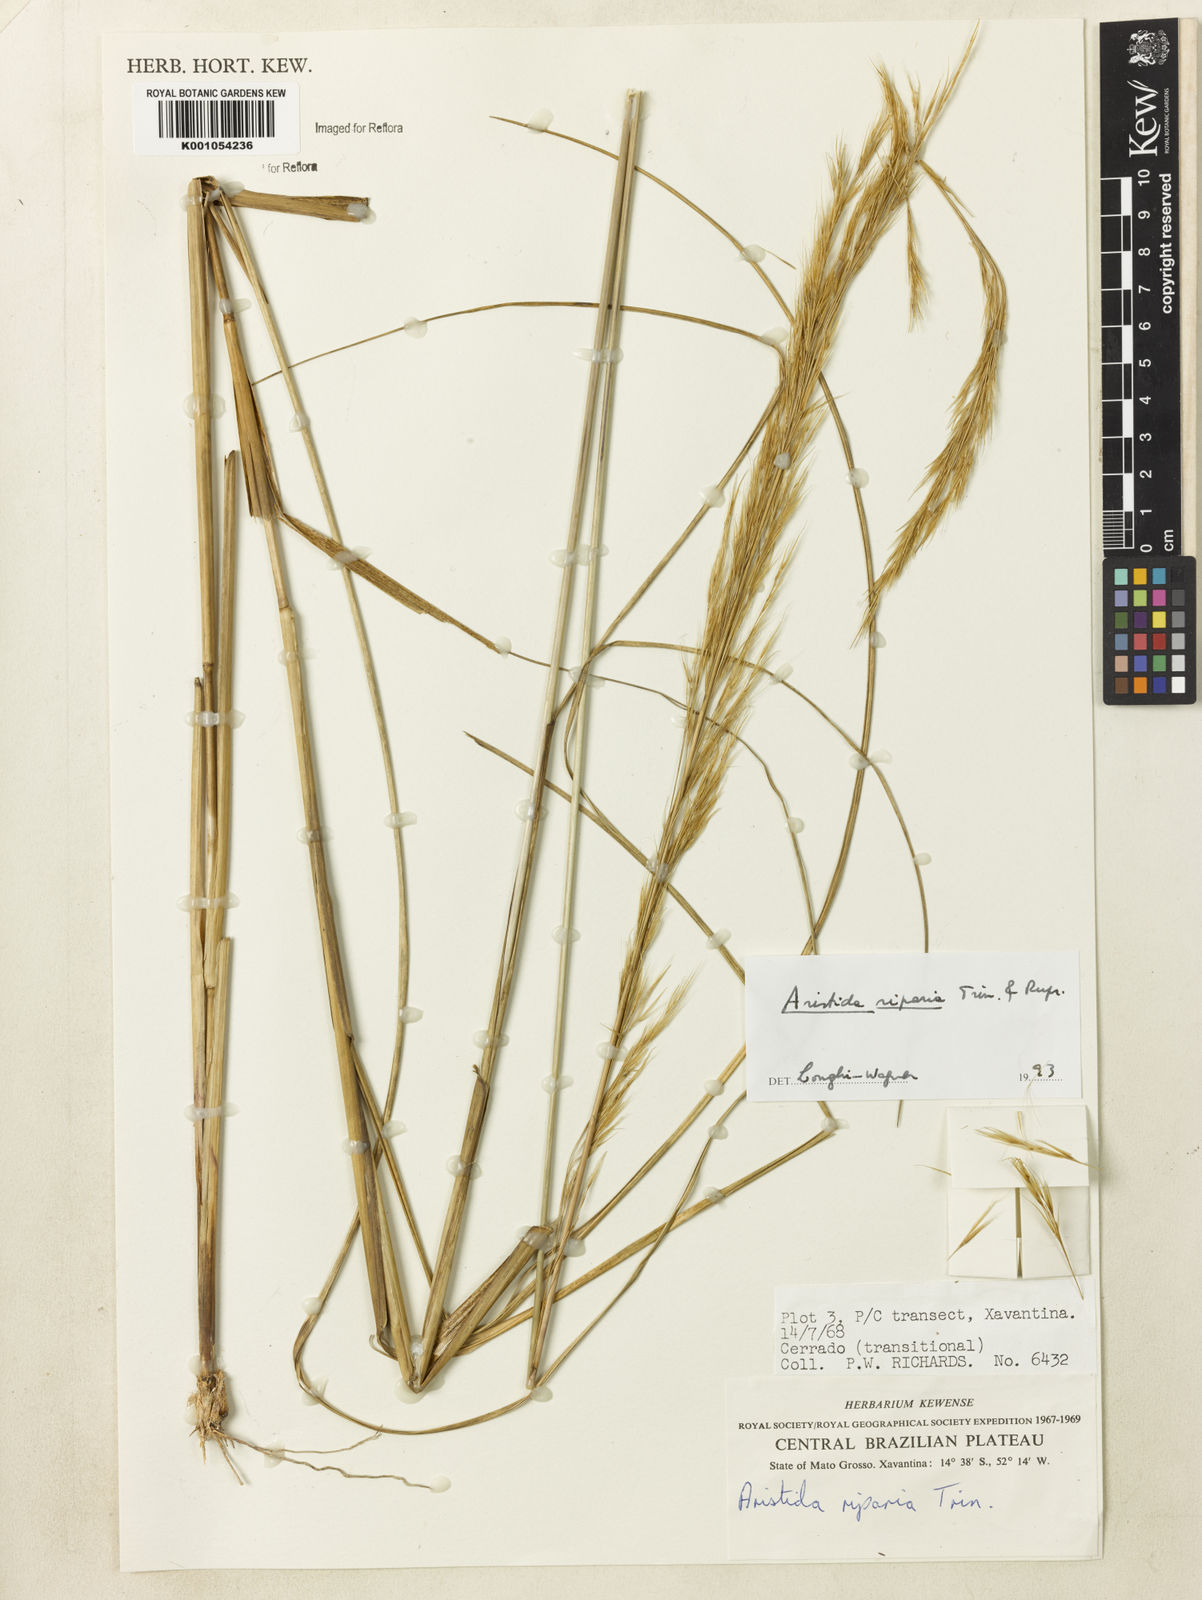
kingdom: Plantae
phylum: Tracheophyta
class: Liliopsida
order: Poales
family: Poaceae
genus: Aristida
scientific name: Aristida riparia
